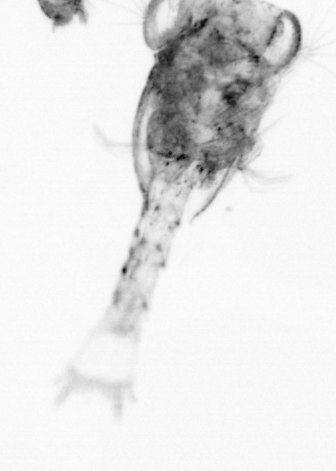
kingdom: Animalia
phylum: Arthropoda
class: Copepoda
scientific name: Copepoda
